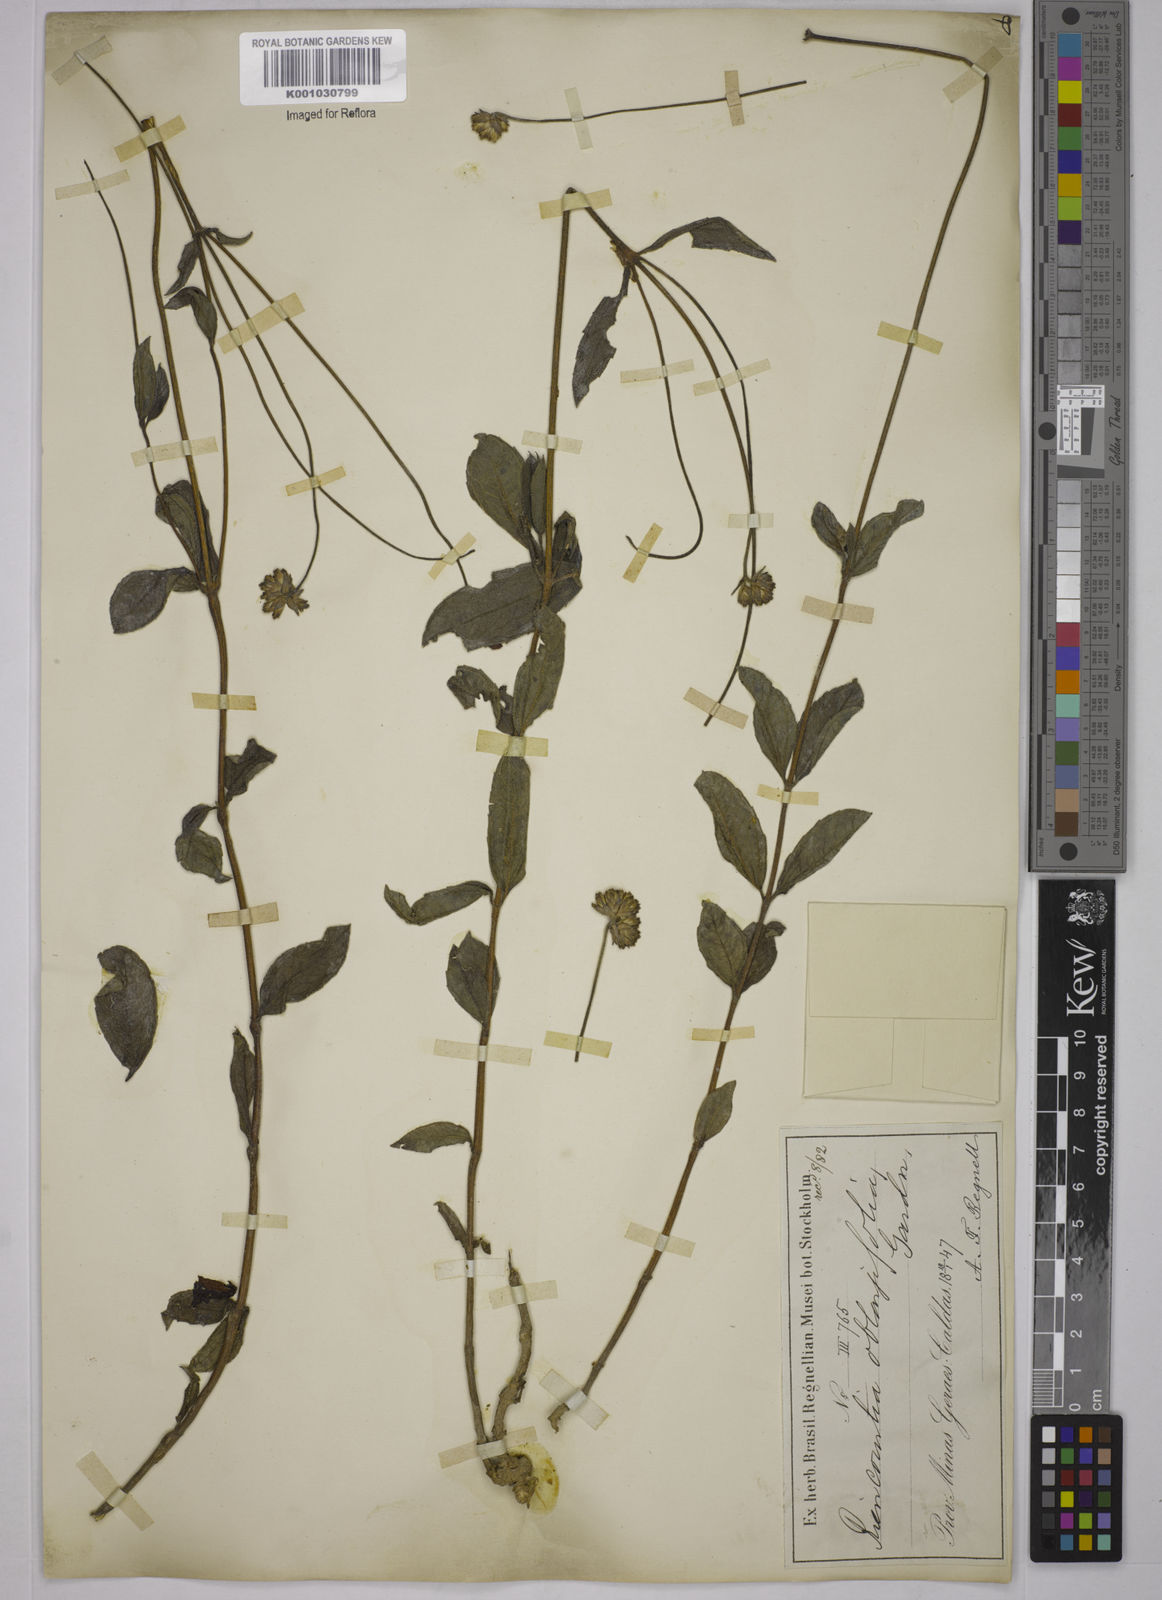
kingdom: Plantae
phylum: Tracheophyta
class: Magnoliopsida
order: Asterales
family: Asteraceae
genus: Riencourtia
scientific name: Riencourtia oblongifolia
